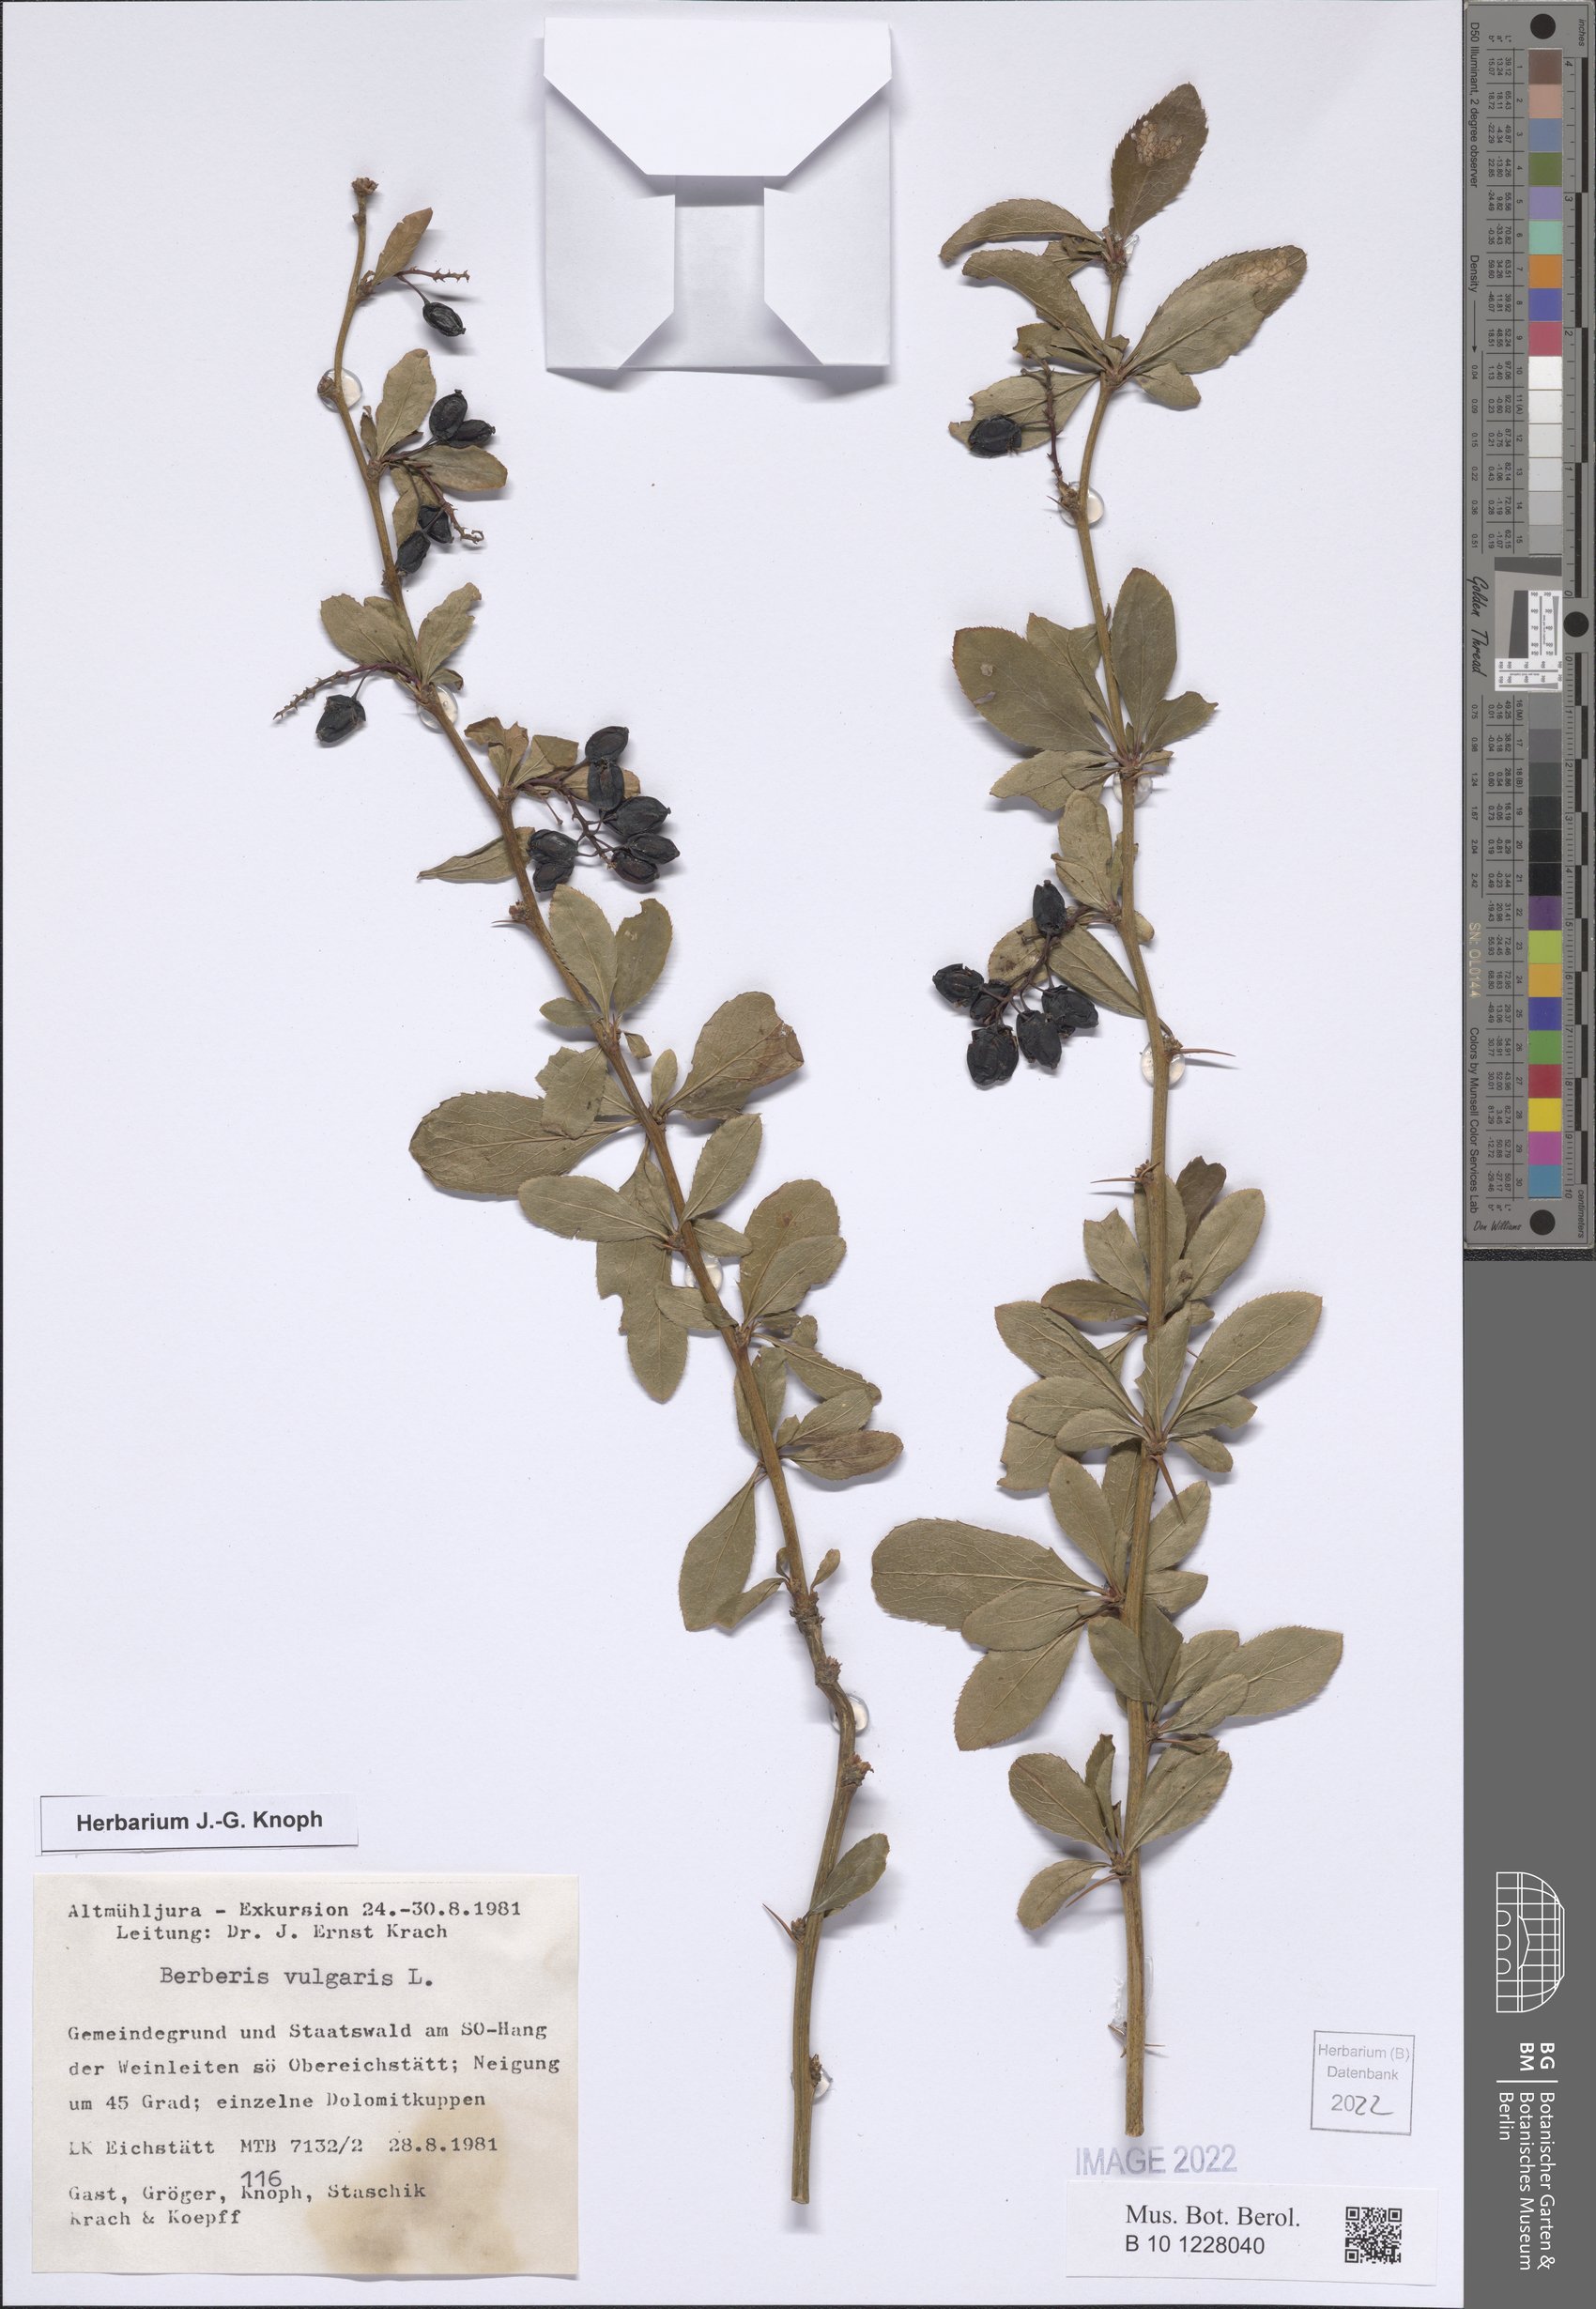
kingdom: Plantae
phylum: Tracheophyta
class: Magnoliopsida
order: Ranunculales
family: Berberidaceae
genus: Berberis
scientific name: Berberis vulgaris
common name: Barberry
